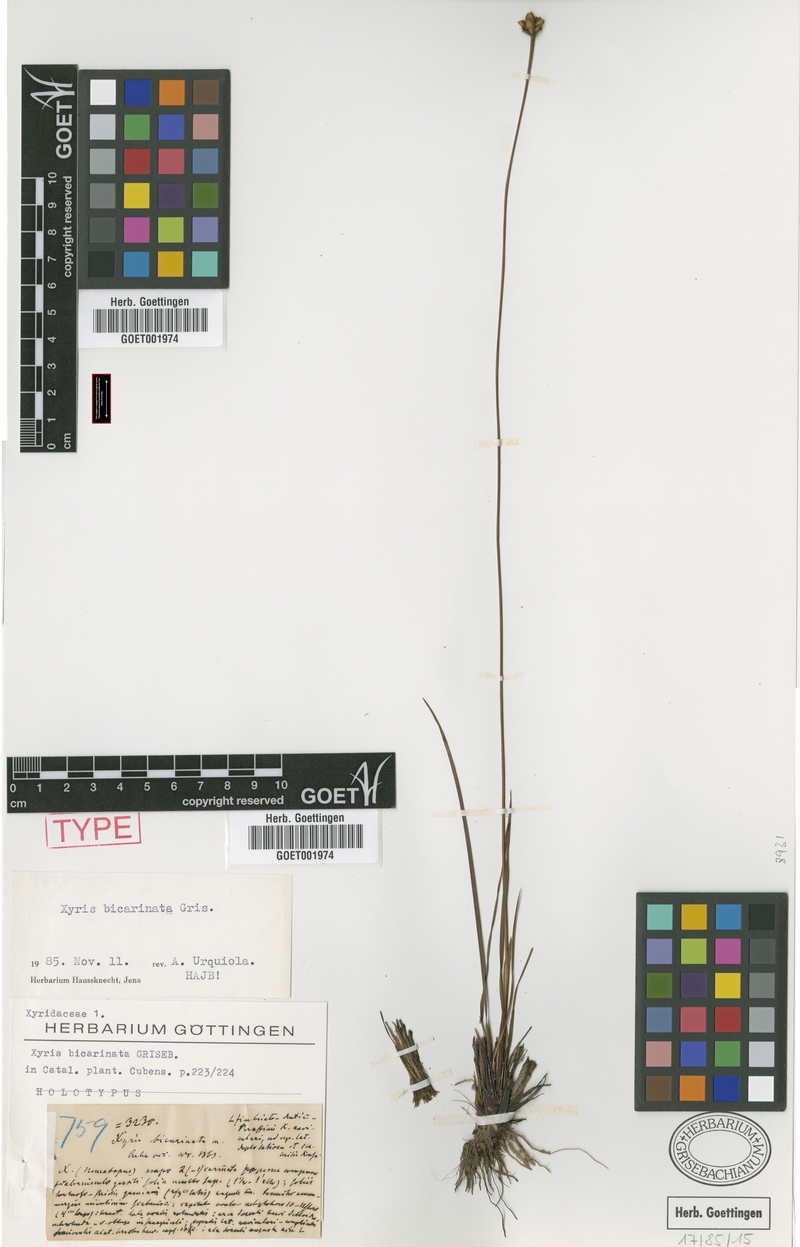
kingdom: Plantae
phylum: Tracheophyta
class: Liliopsida
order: Poales
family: Xyridaceae
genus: Xyris
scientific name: Xyris bicarinata
